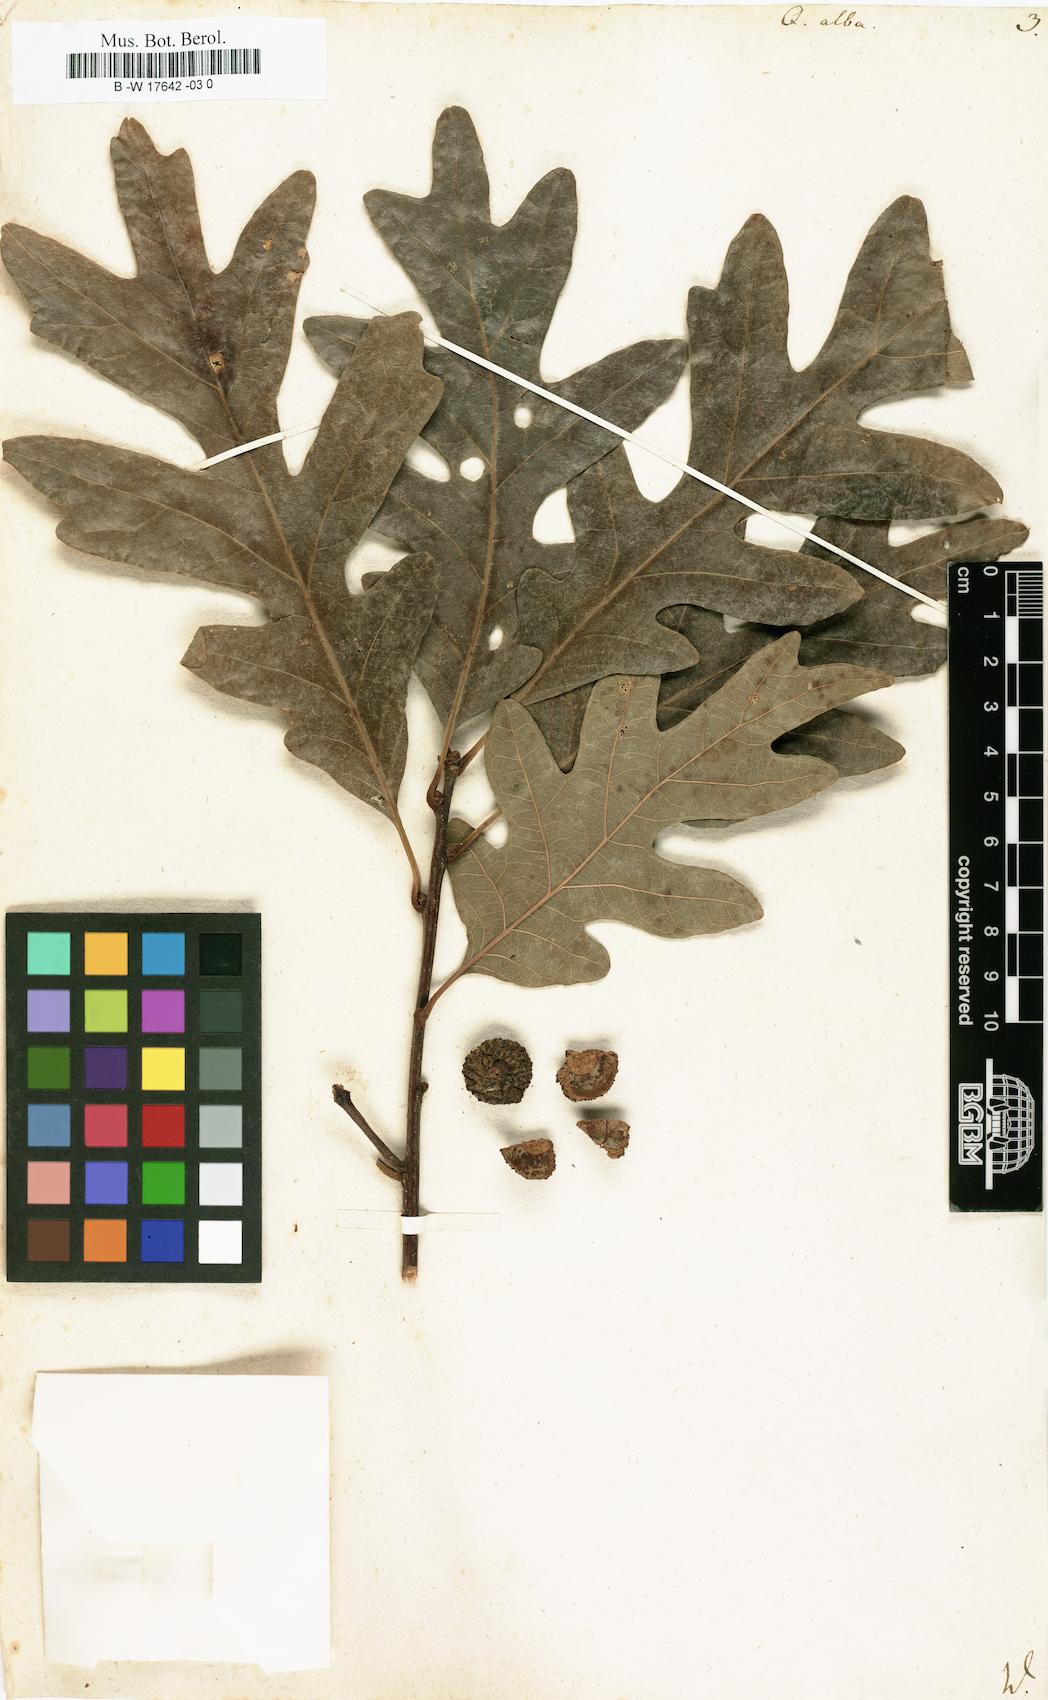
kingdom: Plantae
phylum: Tracheophyta
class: Magnoliopsida
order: Fagales
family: Fagaceae
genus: Quercus
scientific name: Quercus alba
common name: White oak
